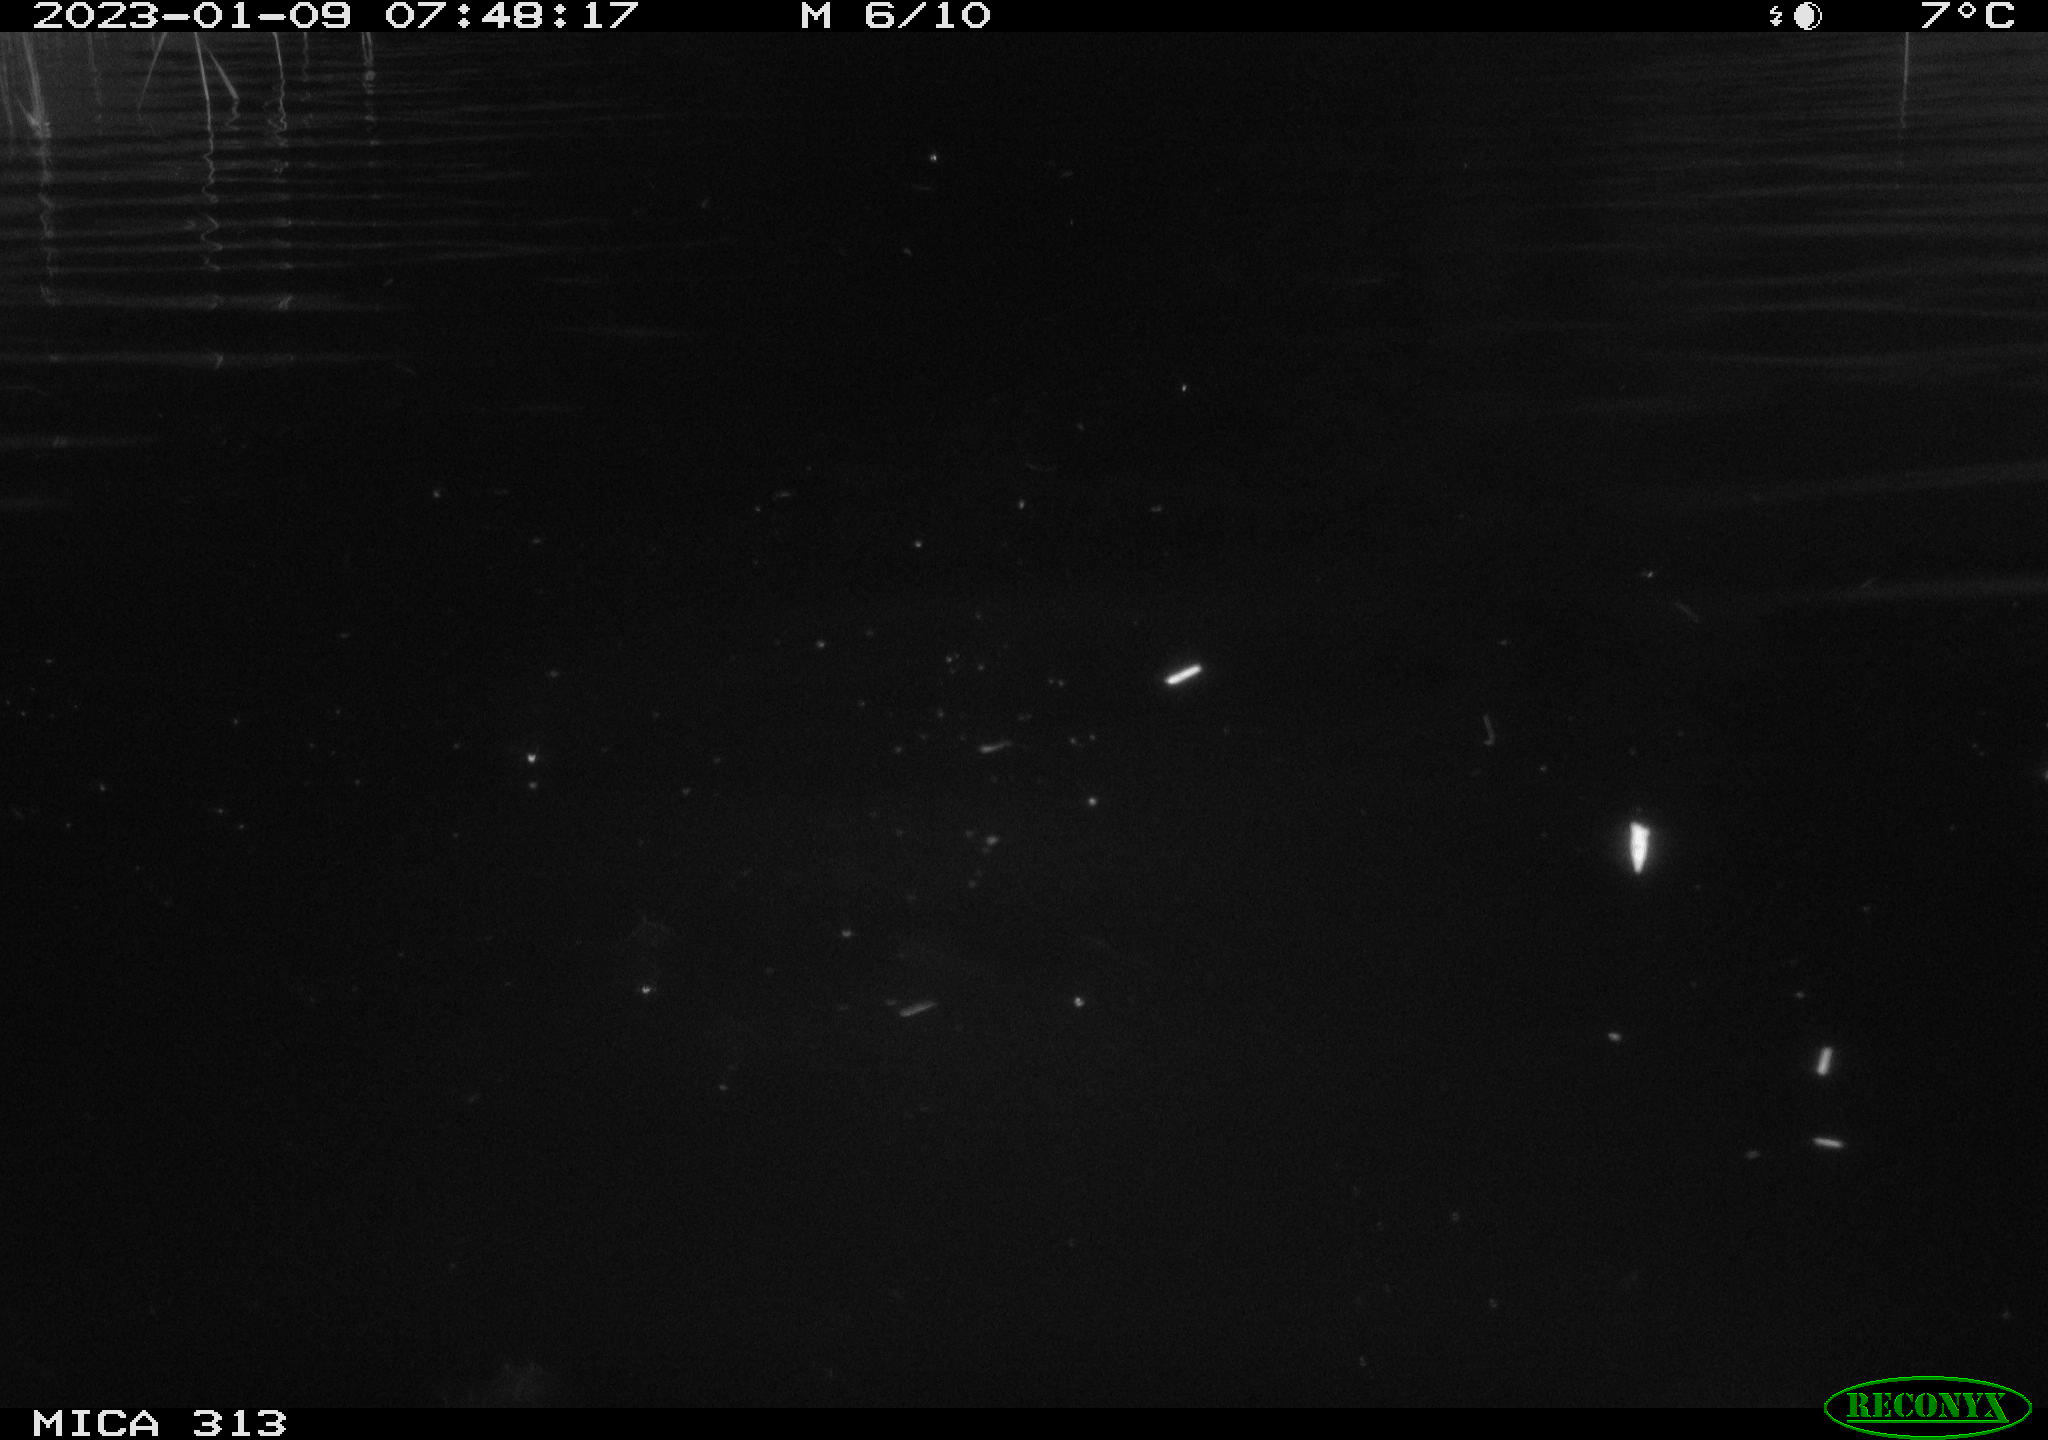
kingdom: Animalia
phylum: Chordata
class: Aves
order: Anseriformes
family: Anatidae
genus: Anas
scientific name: Anas
